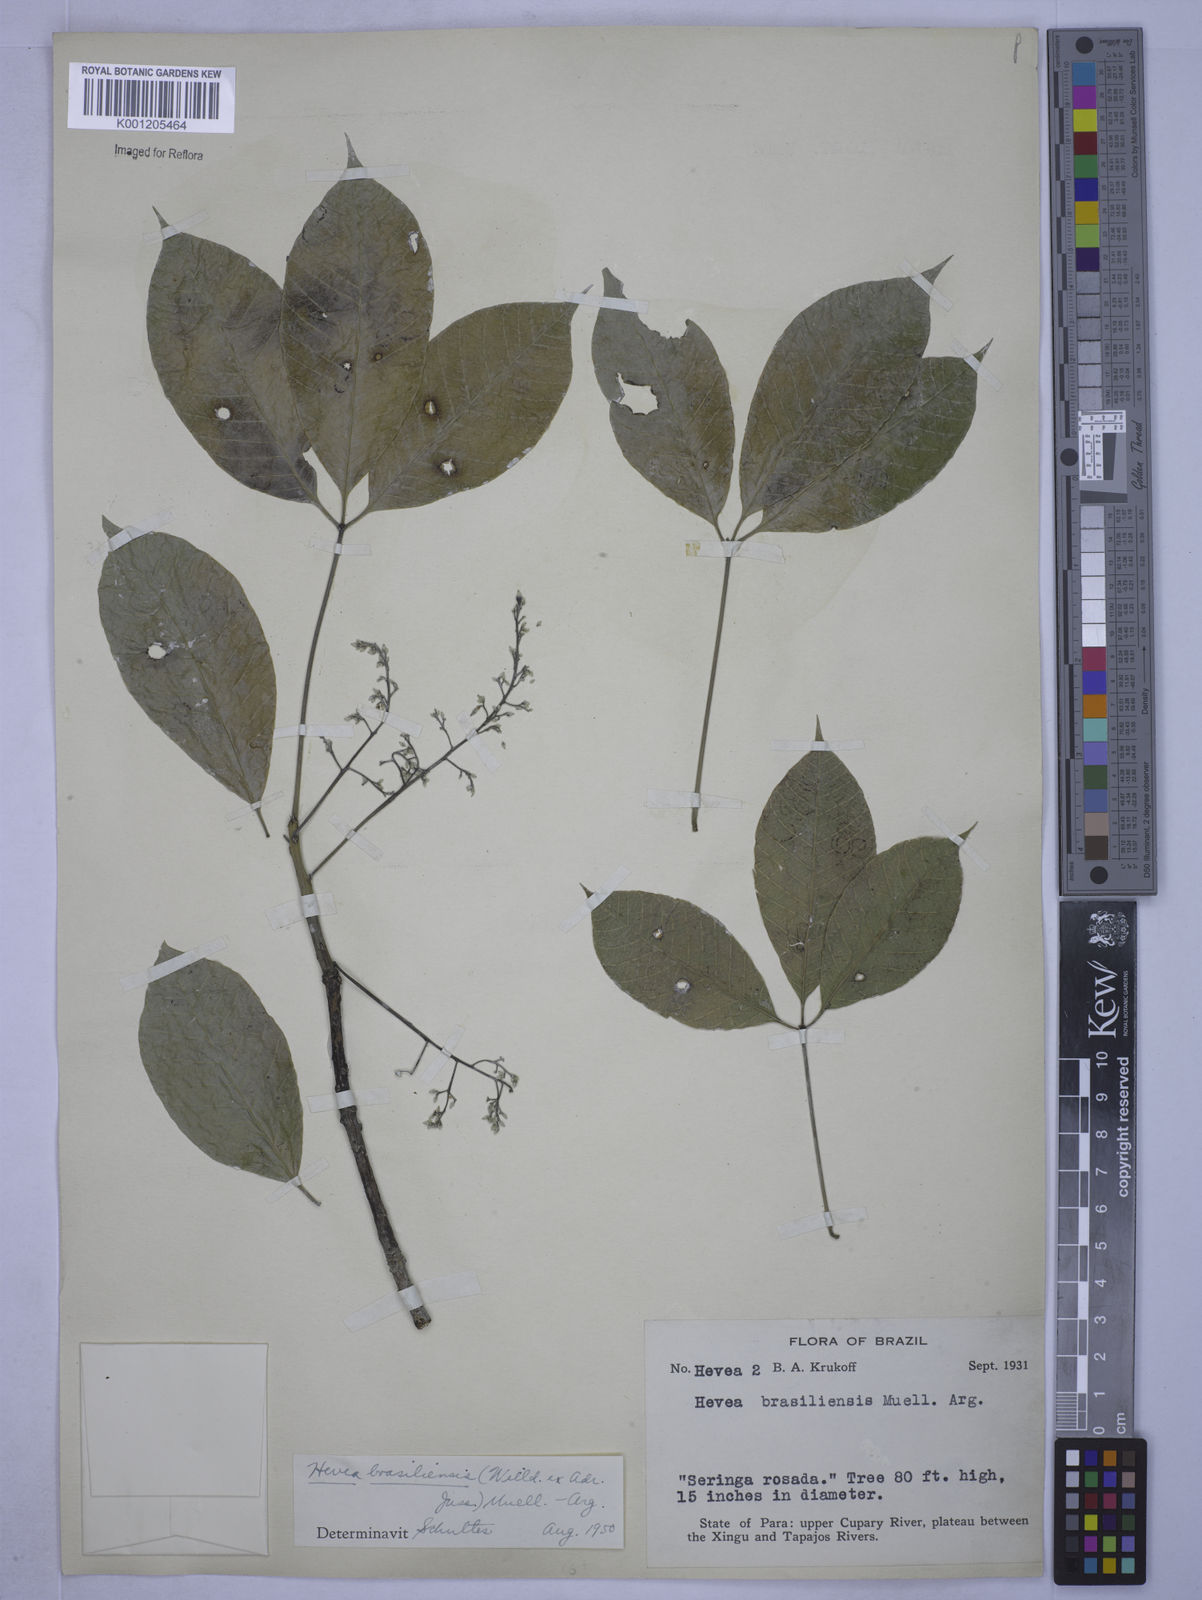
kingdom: Plantae
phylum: Tracheophyta
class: Magnoliopsida
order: Malpighiales
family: Euphorbiaceae
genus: Hevea
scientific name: Hevea
